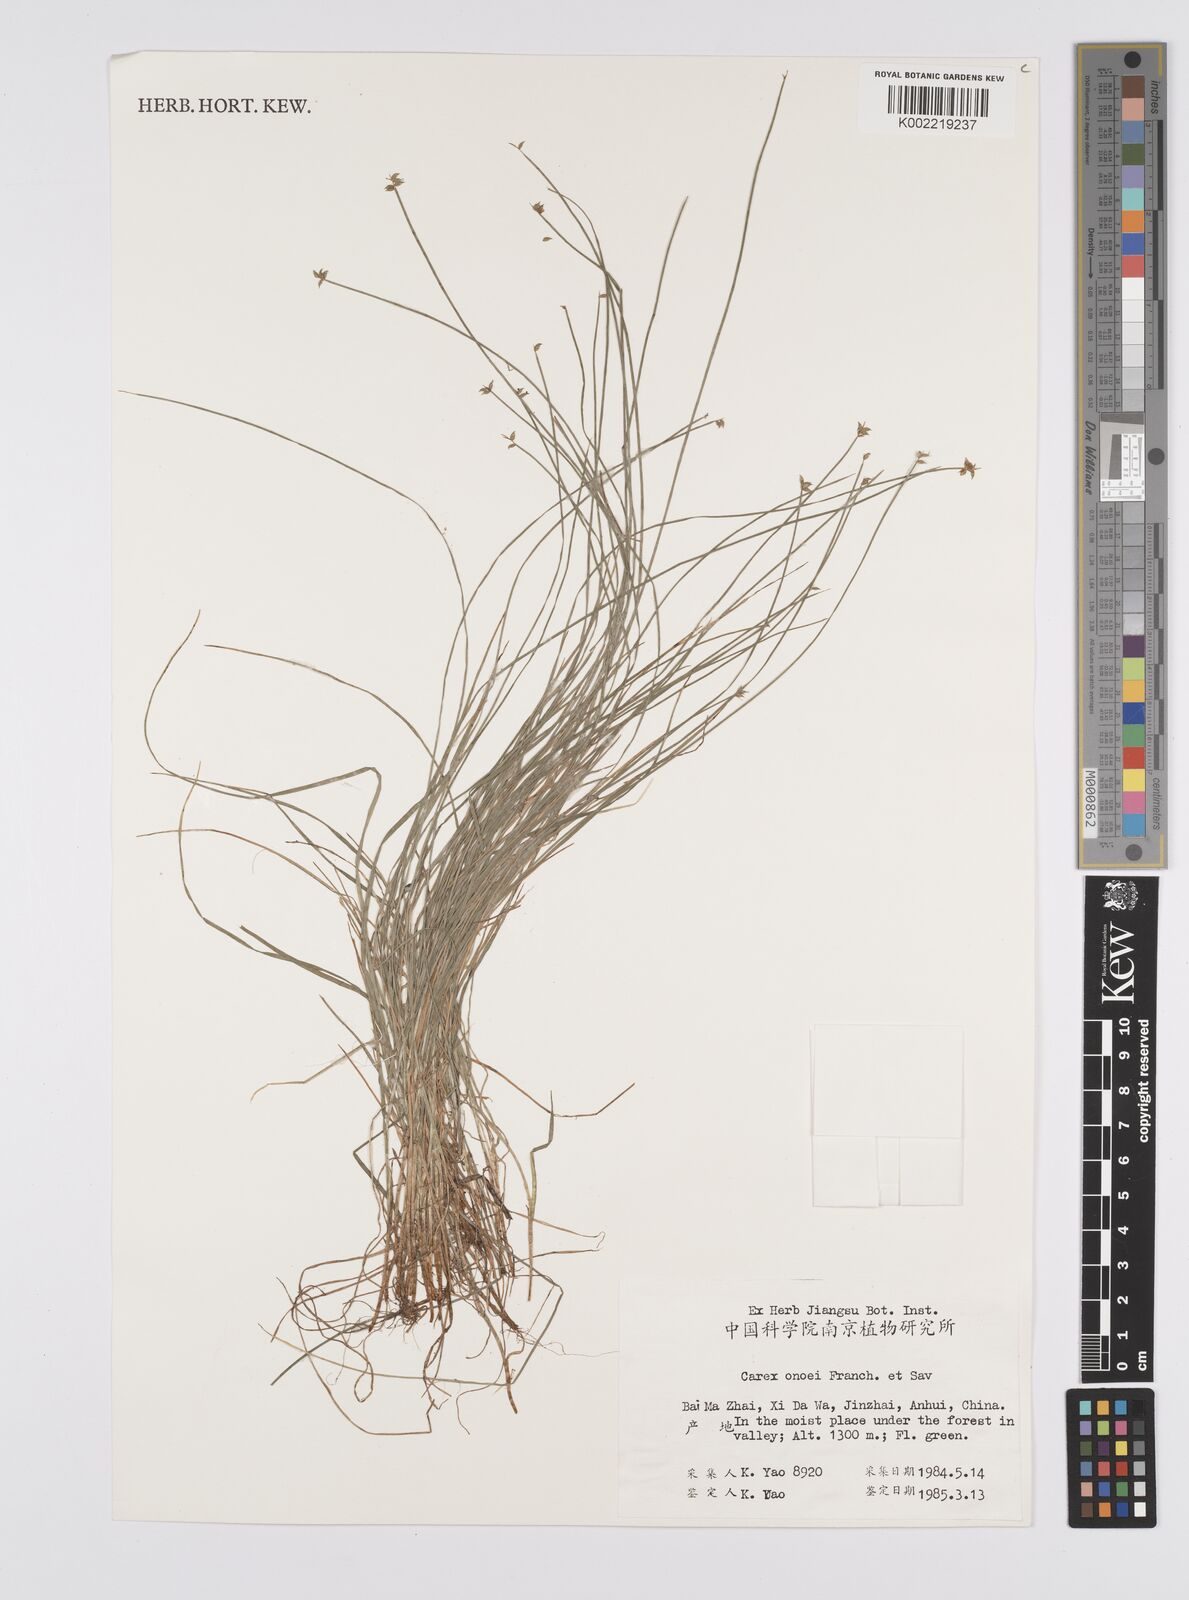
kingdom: Plantae
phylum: Tracheophyta
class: Liliopsida
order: Poales
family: Cyperaceae
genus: Carex
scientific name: Carex onoei
